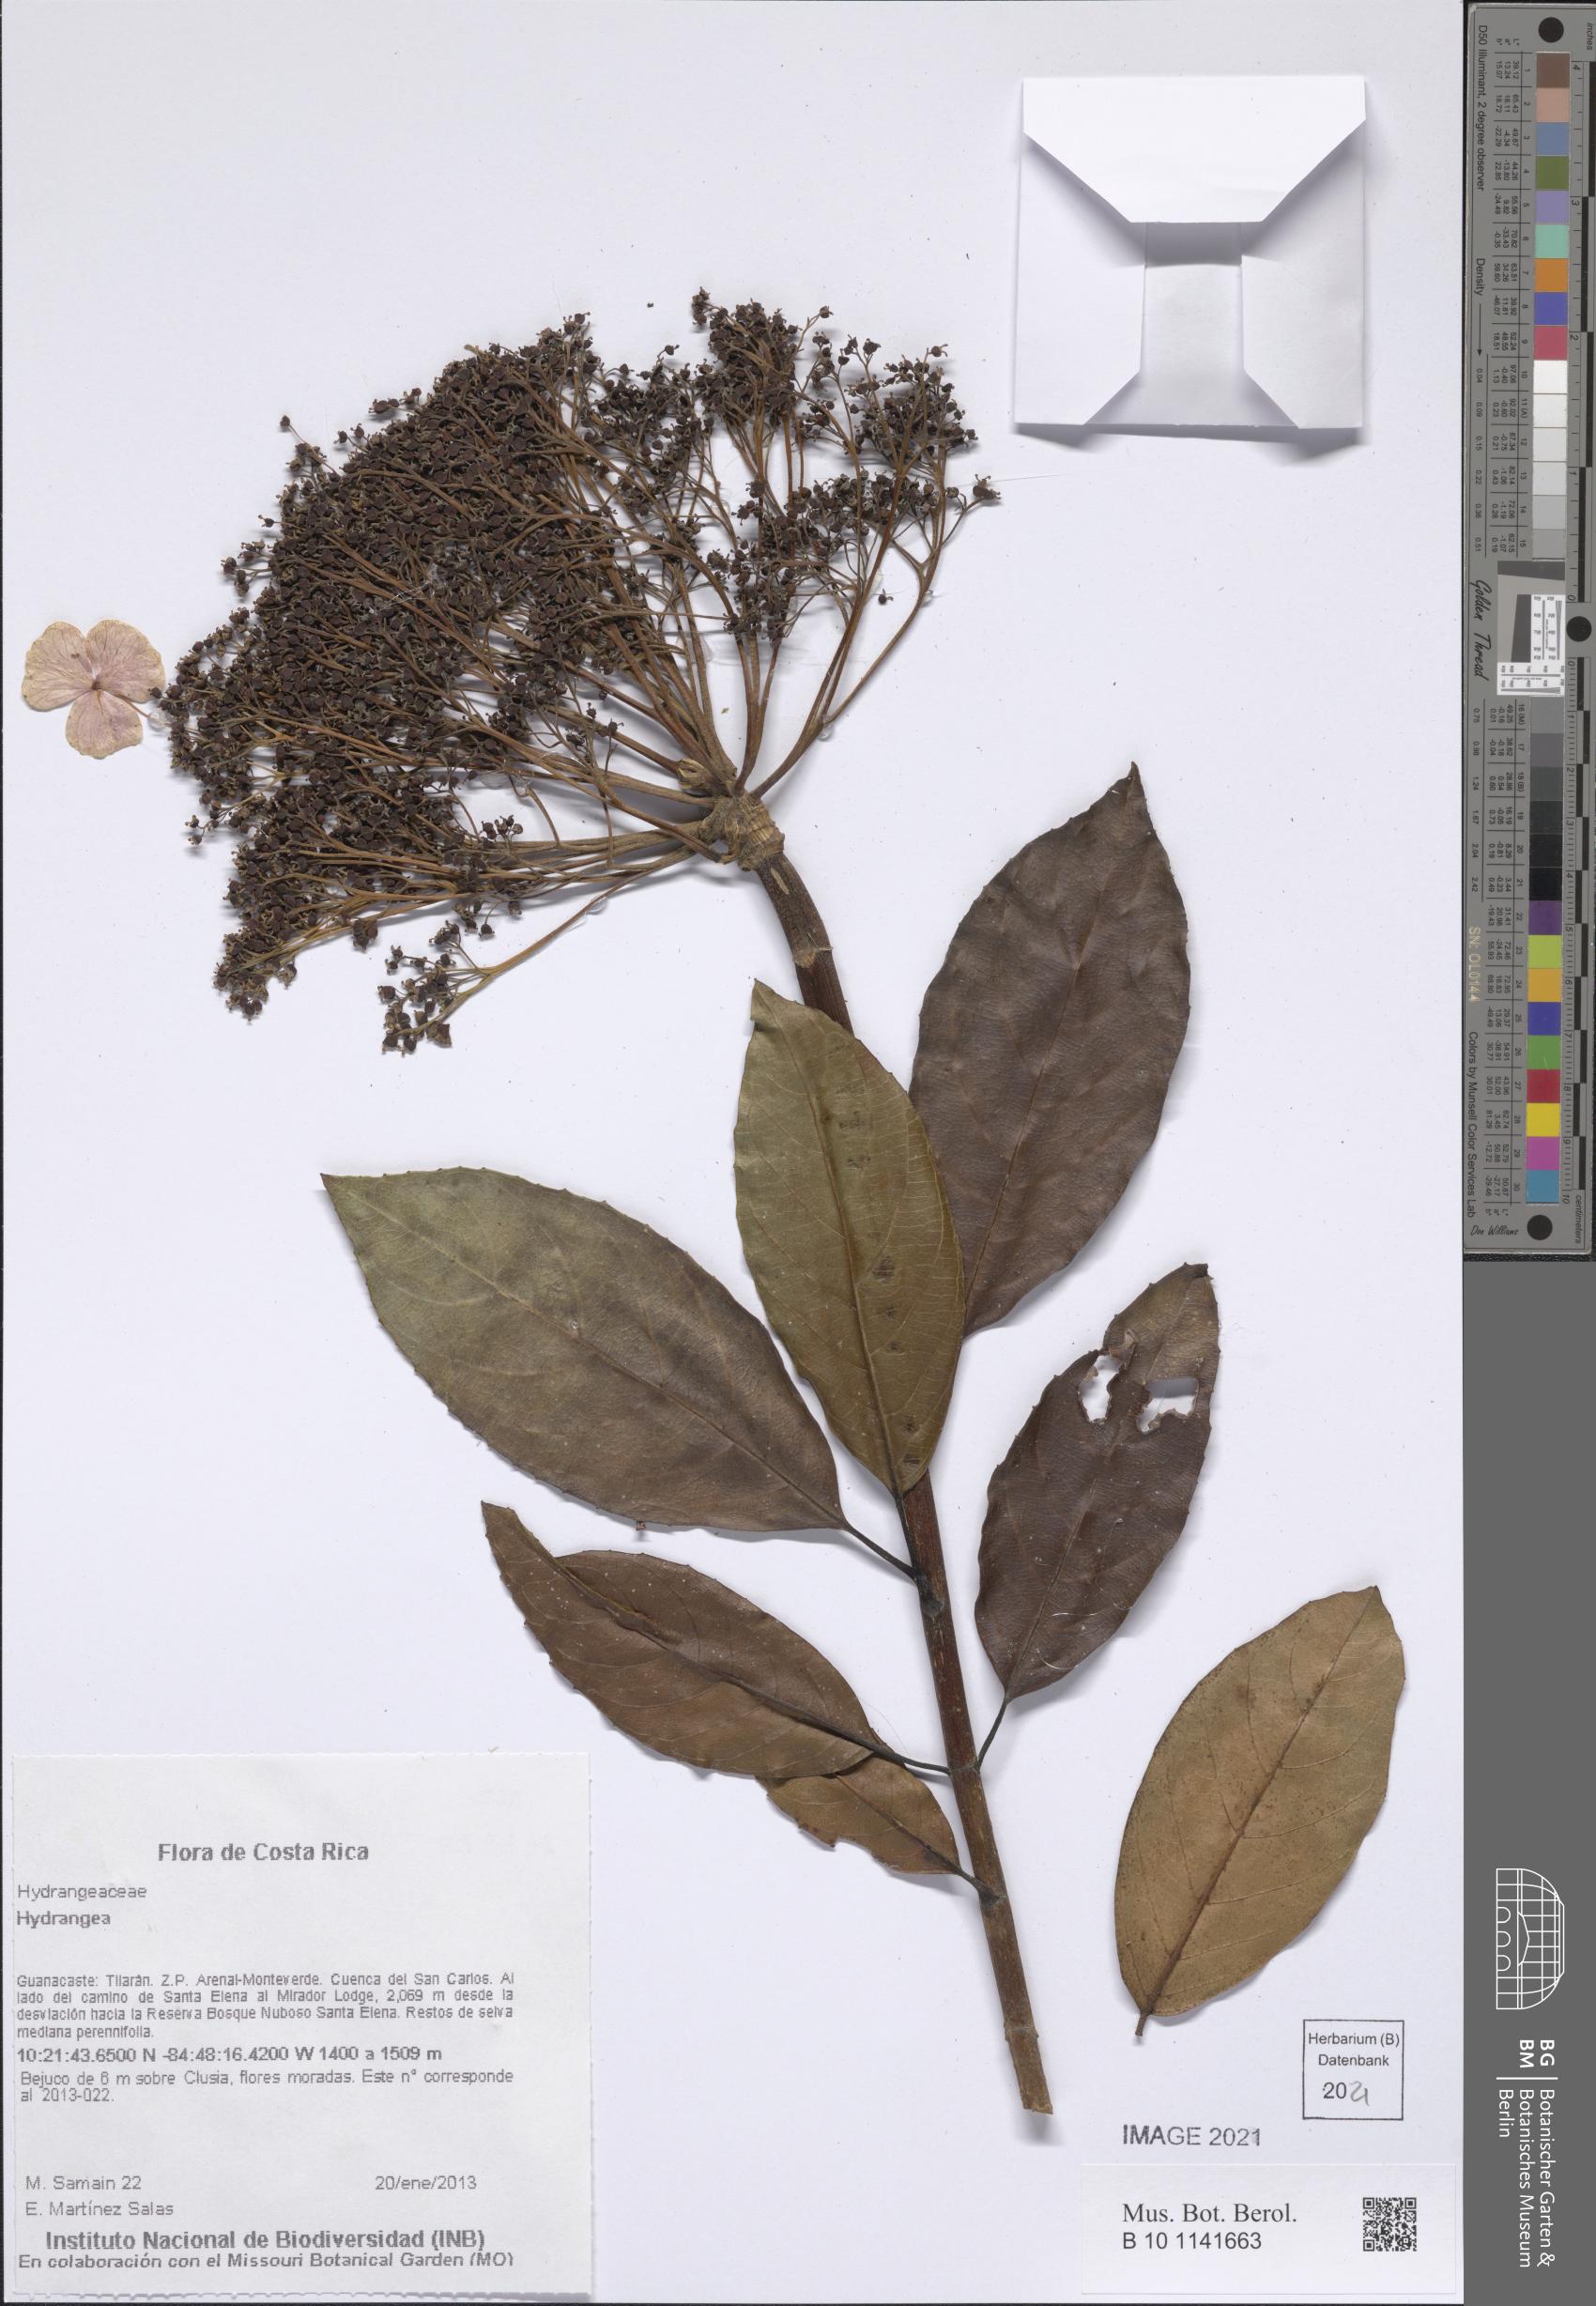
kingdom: Plantae
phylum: Tracheophyta
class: Magnoliopsida
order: Cornales
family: Hydrangeaceae
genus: Hydrangea
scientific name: Hydrangea
